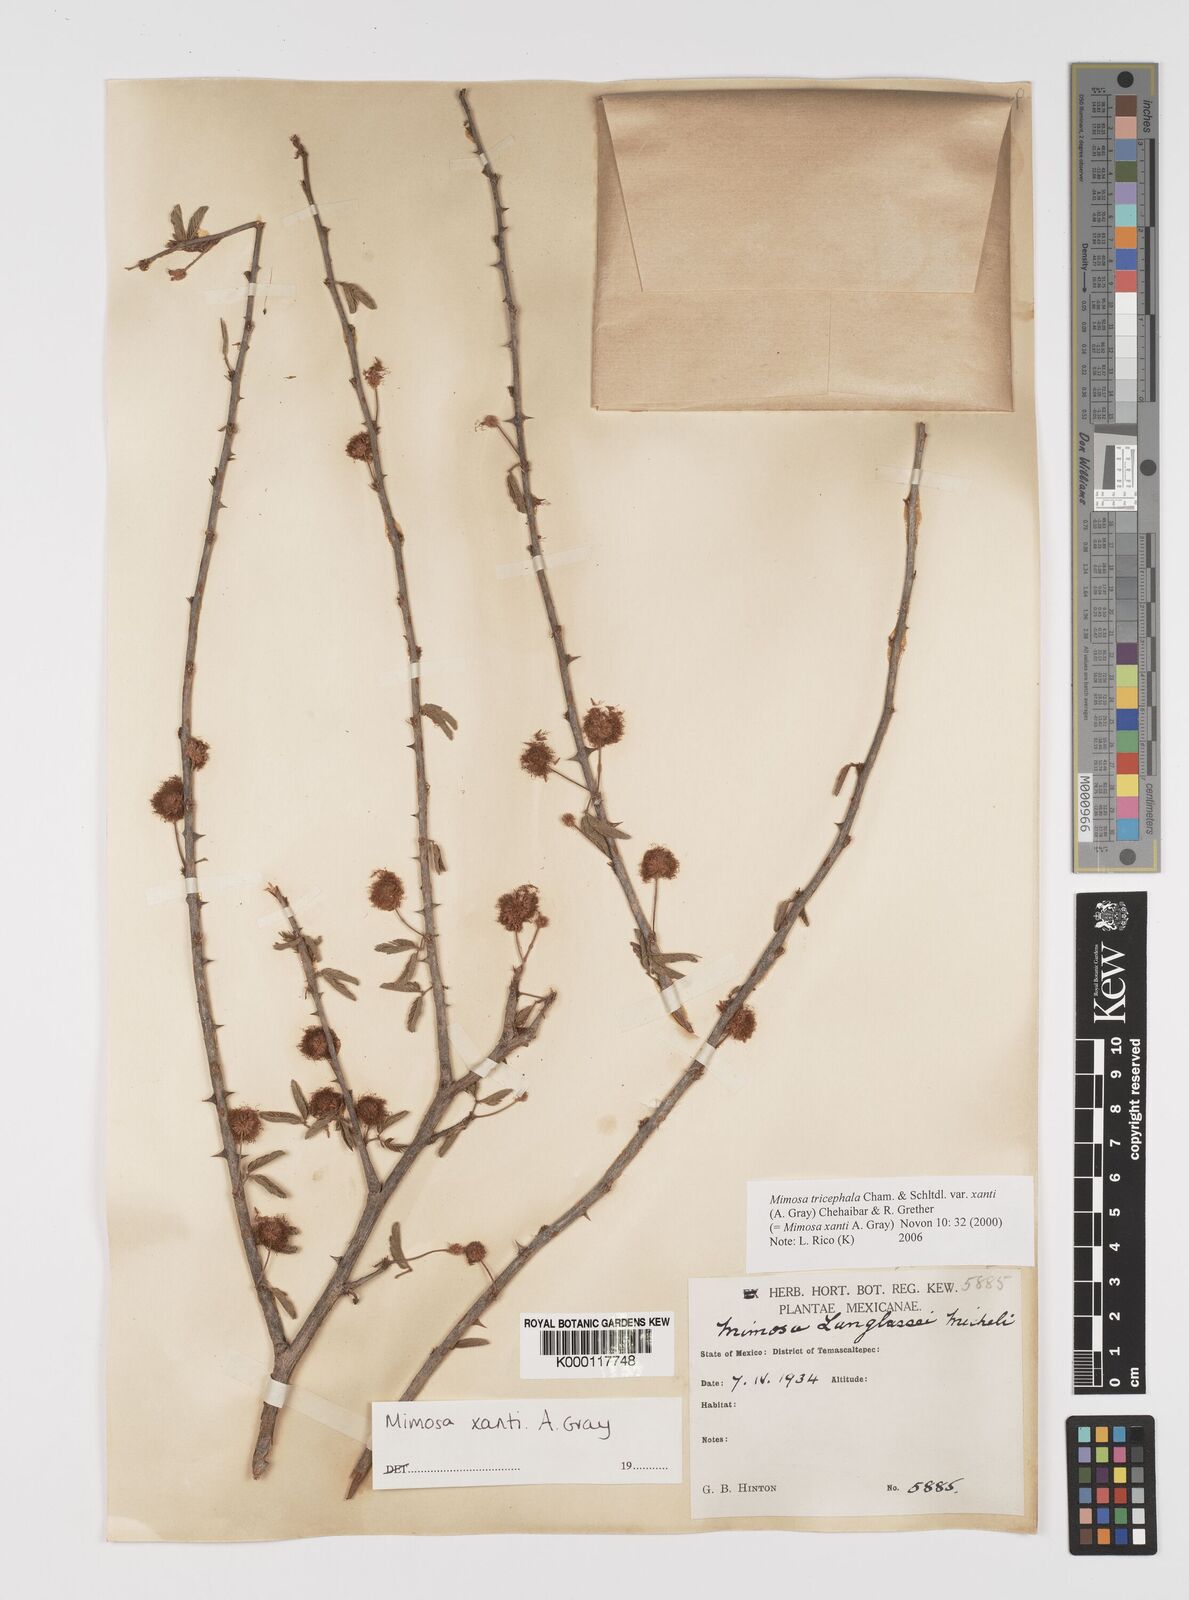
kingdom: Plantae
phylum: Tracheophyta
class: Magnoliopsida
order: Fabales
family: Fabaceae
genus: Mimosa
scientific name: Mimosa tricephala
